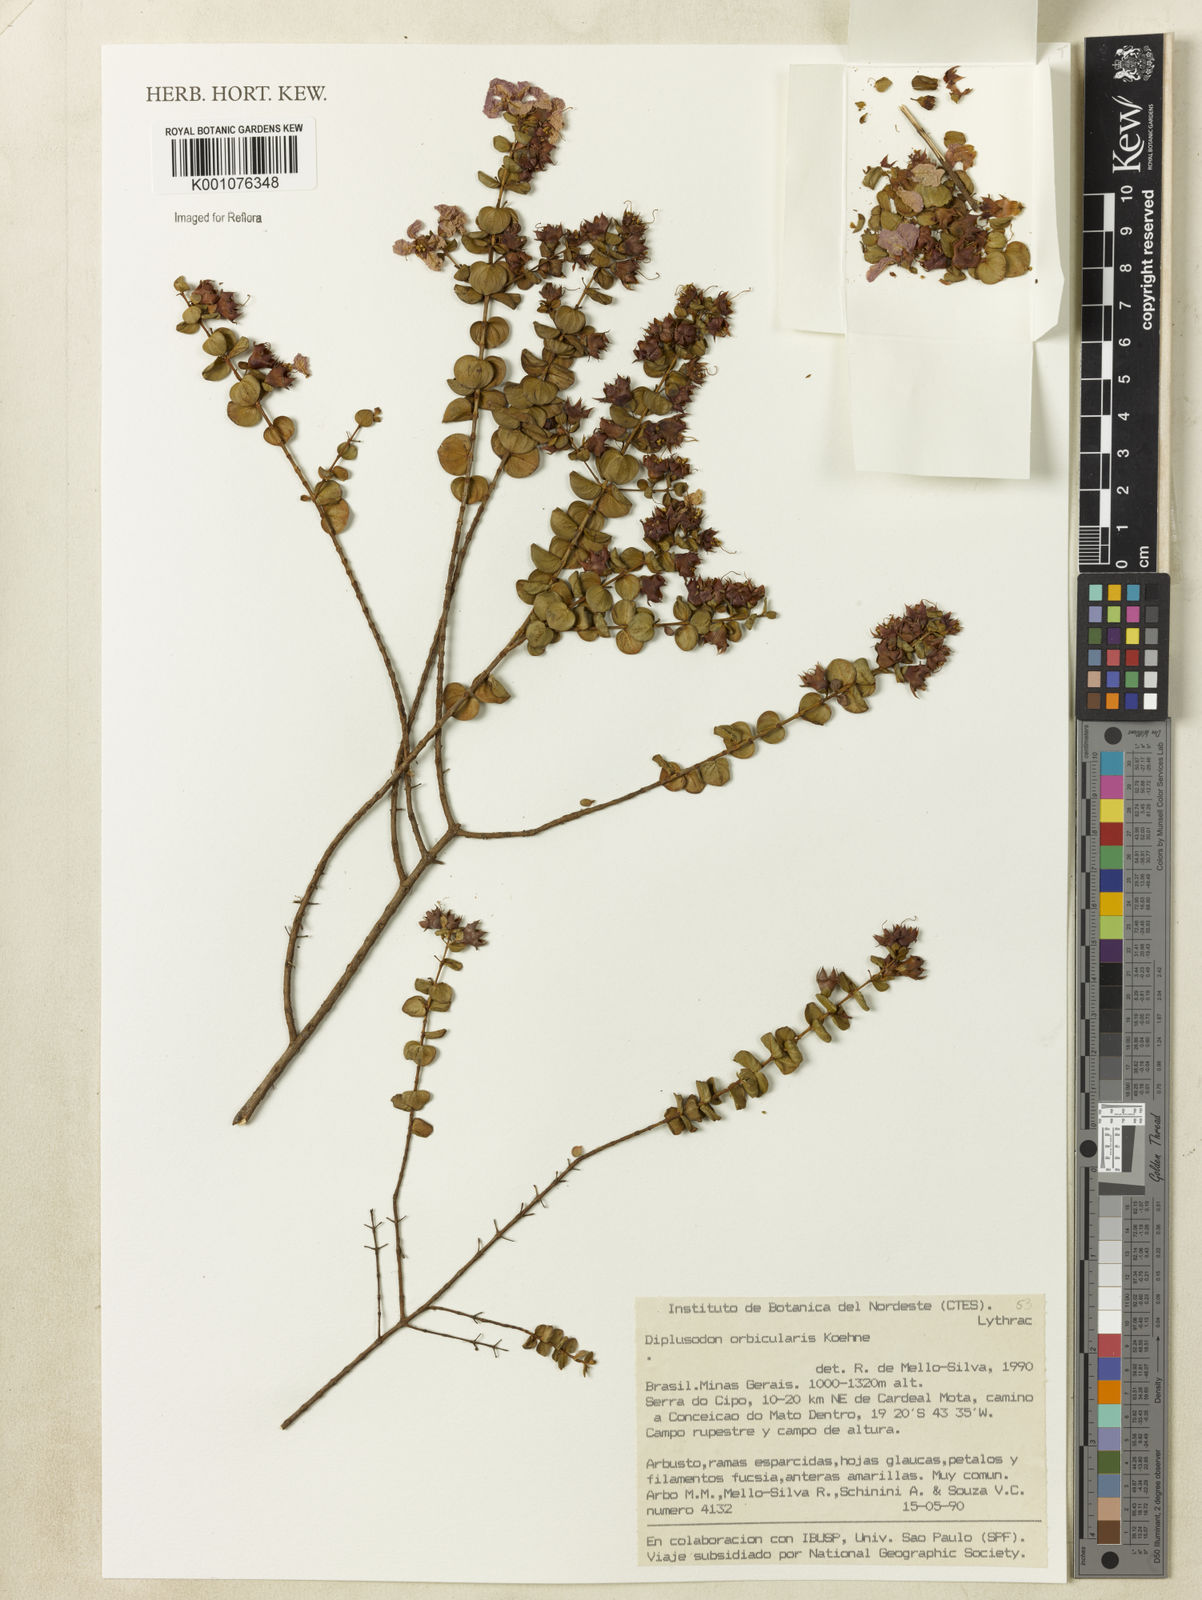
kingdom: Plantae
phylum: Tracheophyta
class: Magnoliopsida
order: Myrtales
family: Lythraceae
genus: Diplusodon
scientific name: Diplusodon orbicularis
